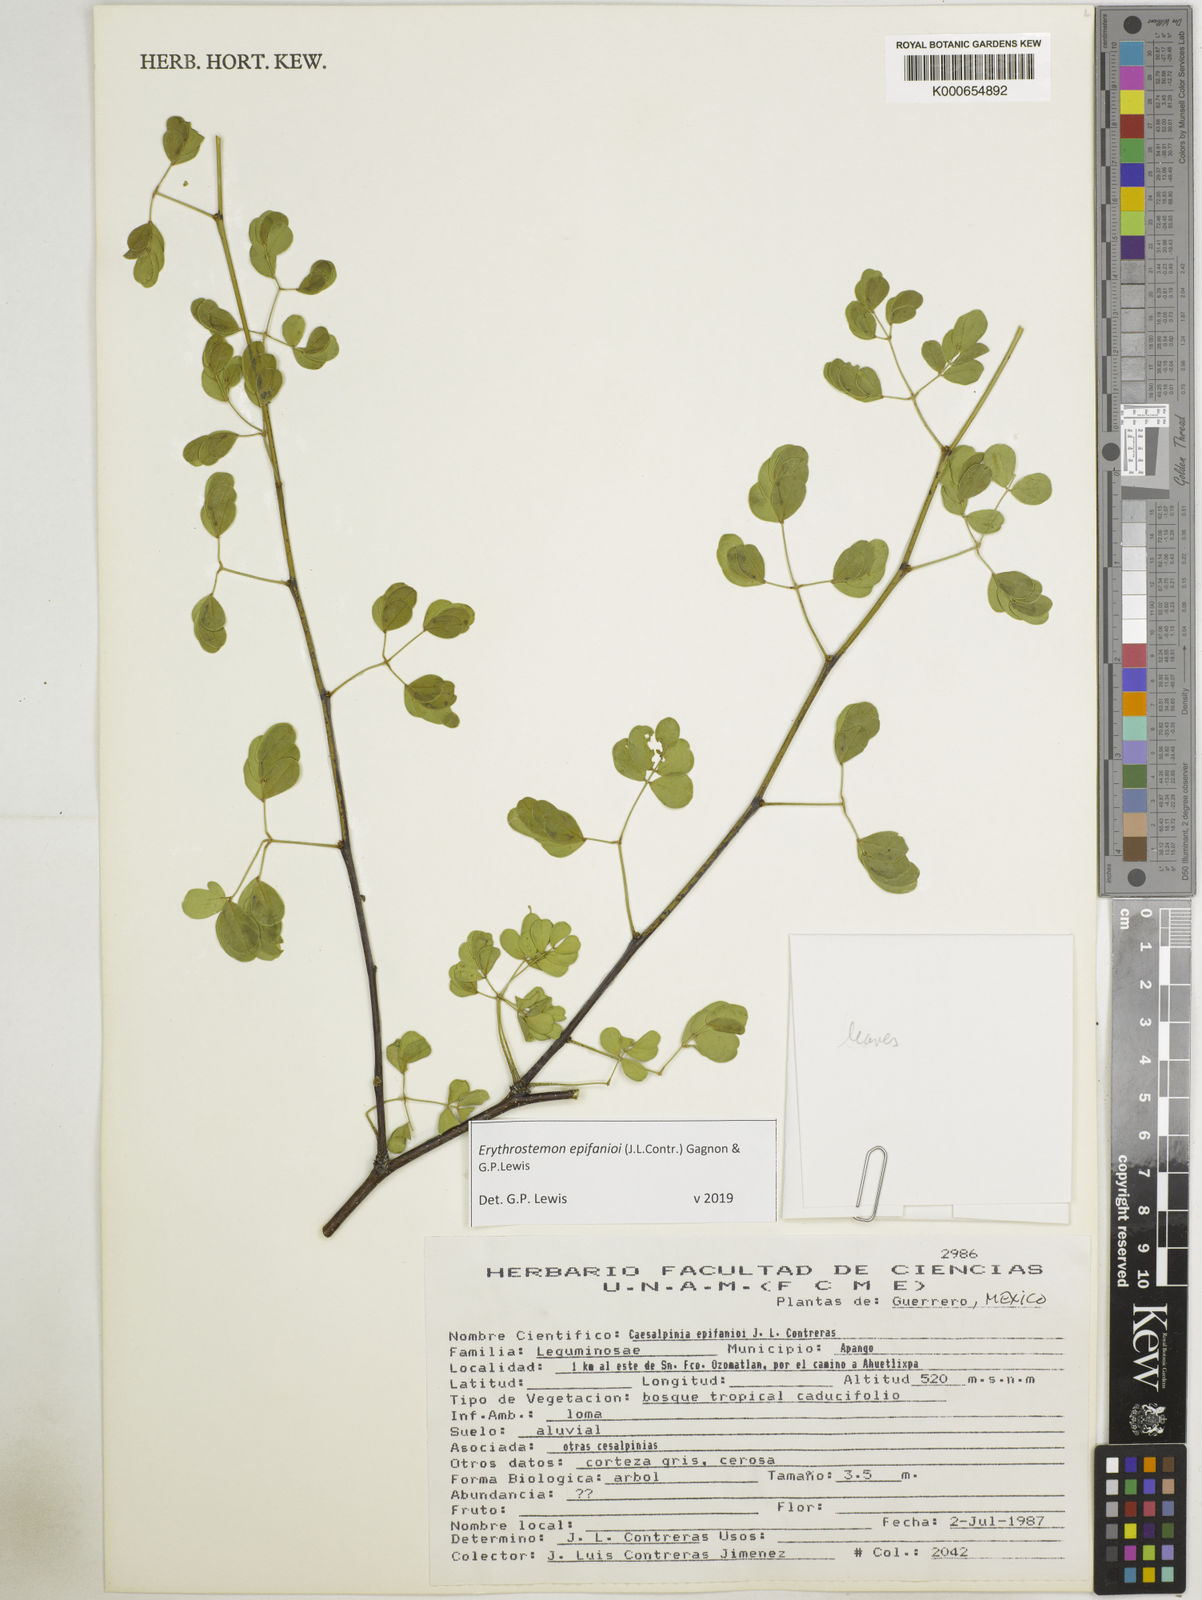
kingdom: Plantae
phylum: Tracheophyta
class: Magnoliopsida
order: Fabales
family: Fabaceae
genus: Erythrostemon
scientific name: Erythrostemon epifanioi
